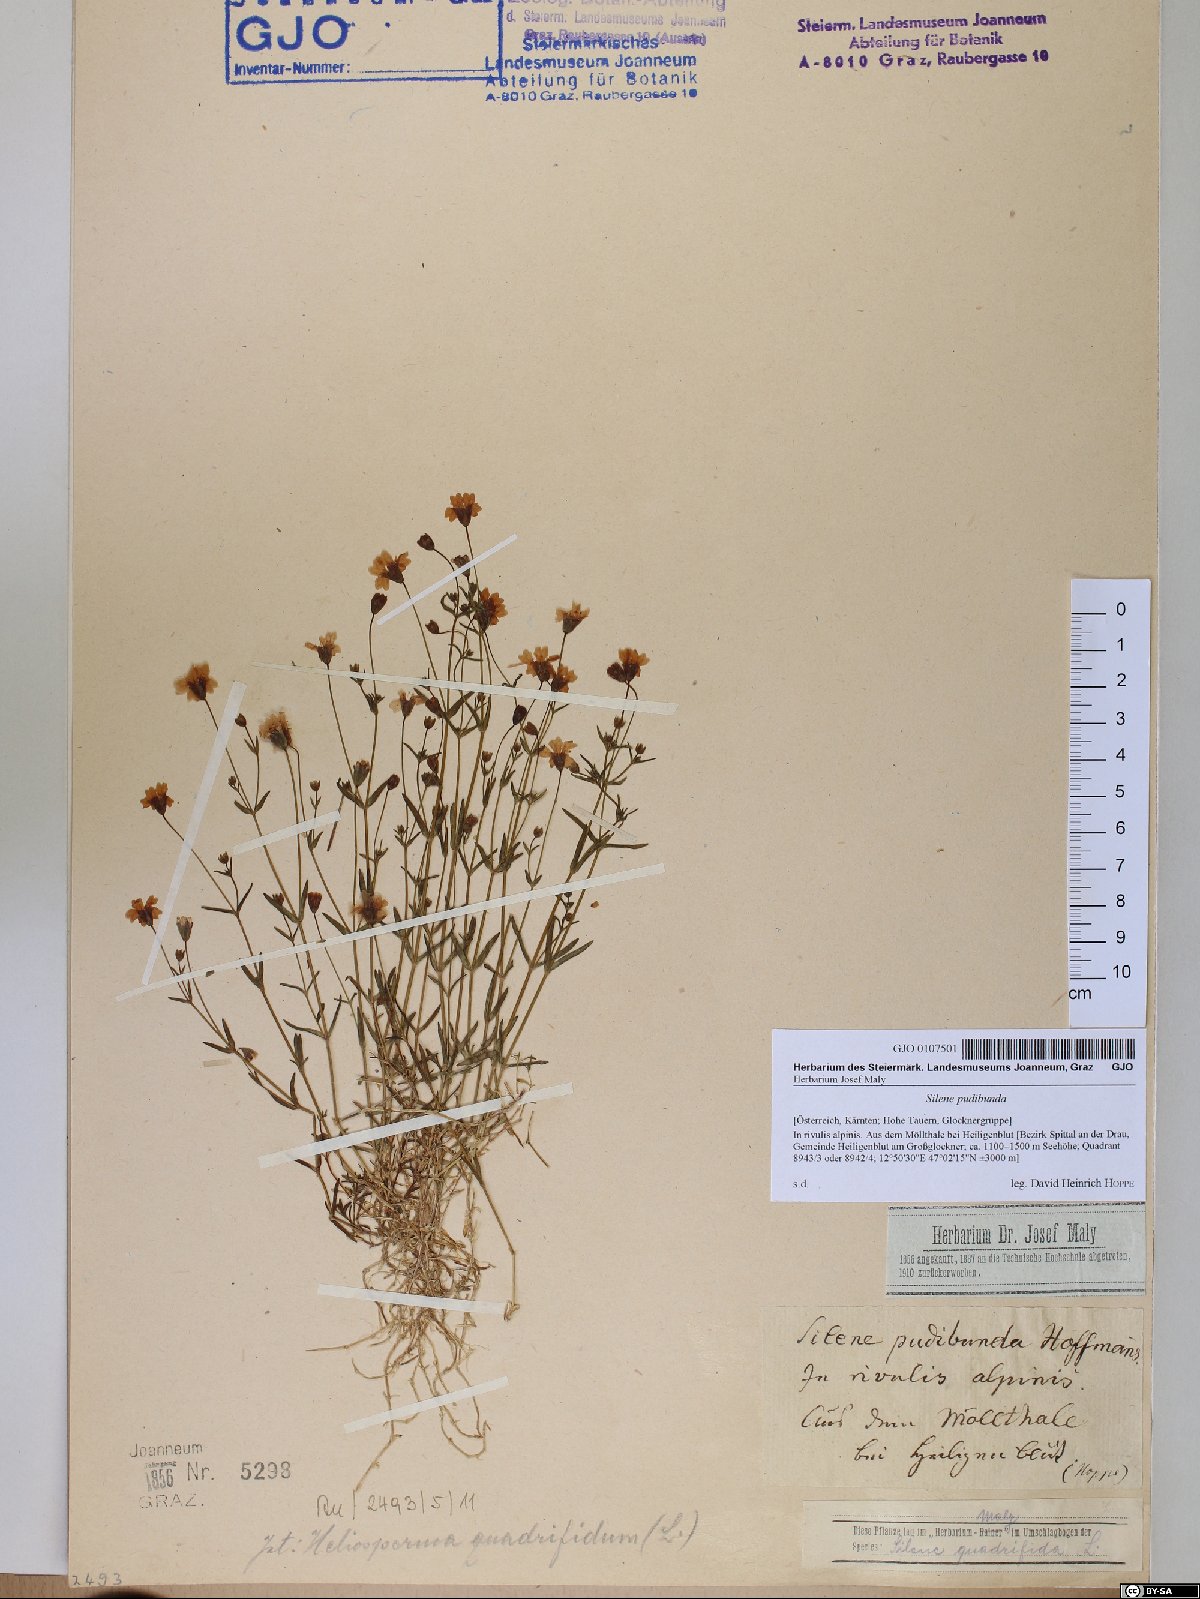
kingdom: Plantae
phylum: Tracheophyta
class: Magnoliopsida
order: Caryophyllales
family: Caryophyllaceae
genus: Heliosperma
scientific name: Heliosperma pudibundum
